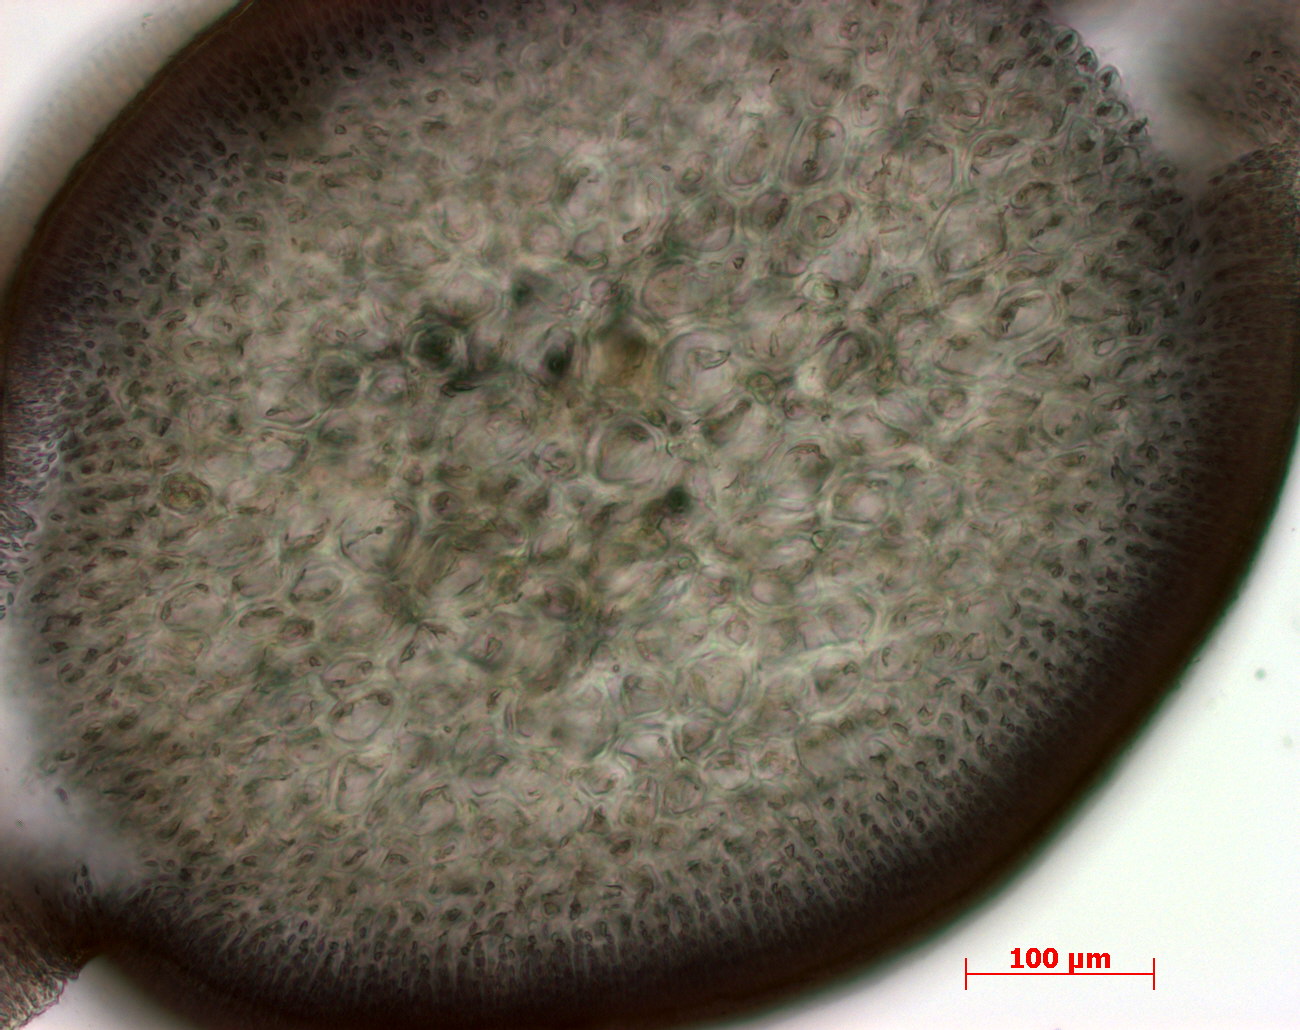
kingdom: Plantae
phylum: Marchantiophyta
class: Jungermanniopsida
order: Jungermanniales
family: Lophocoleaceae
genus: Lophocolea
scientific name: Lophocolea muricata
